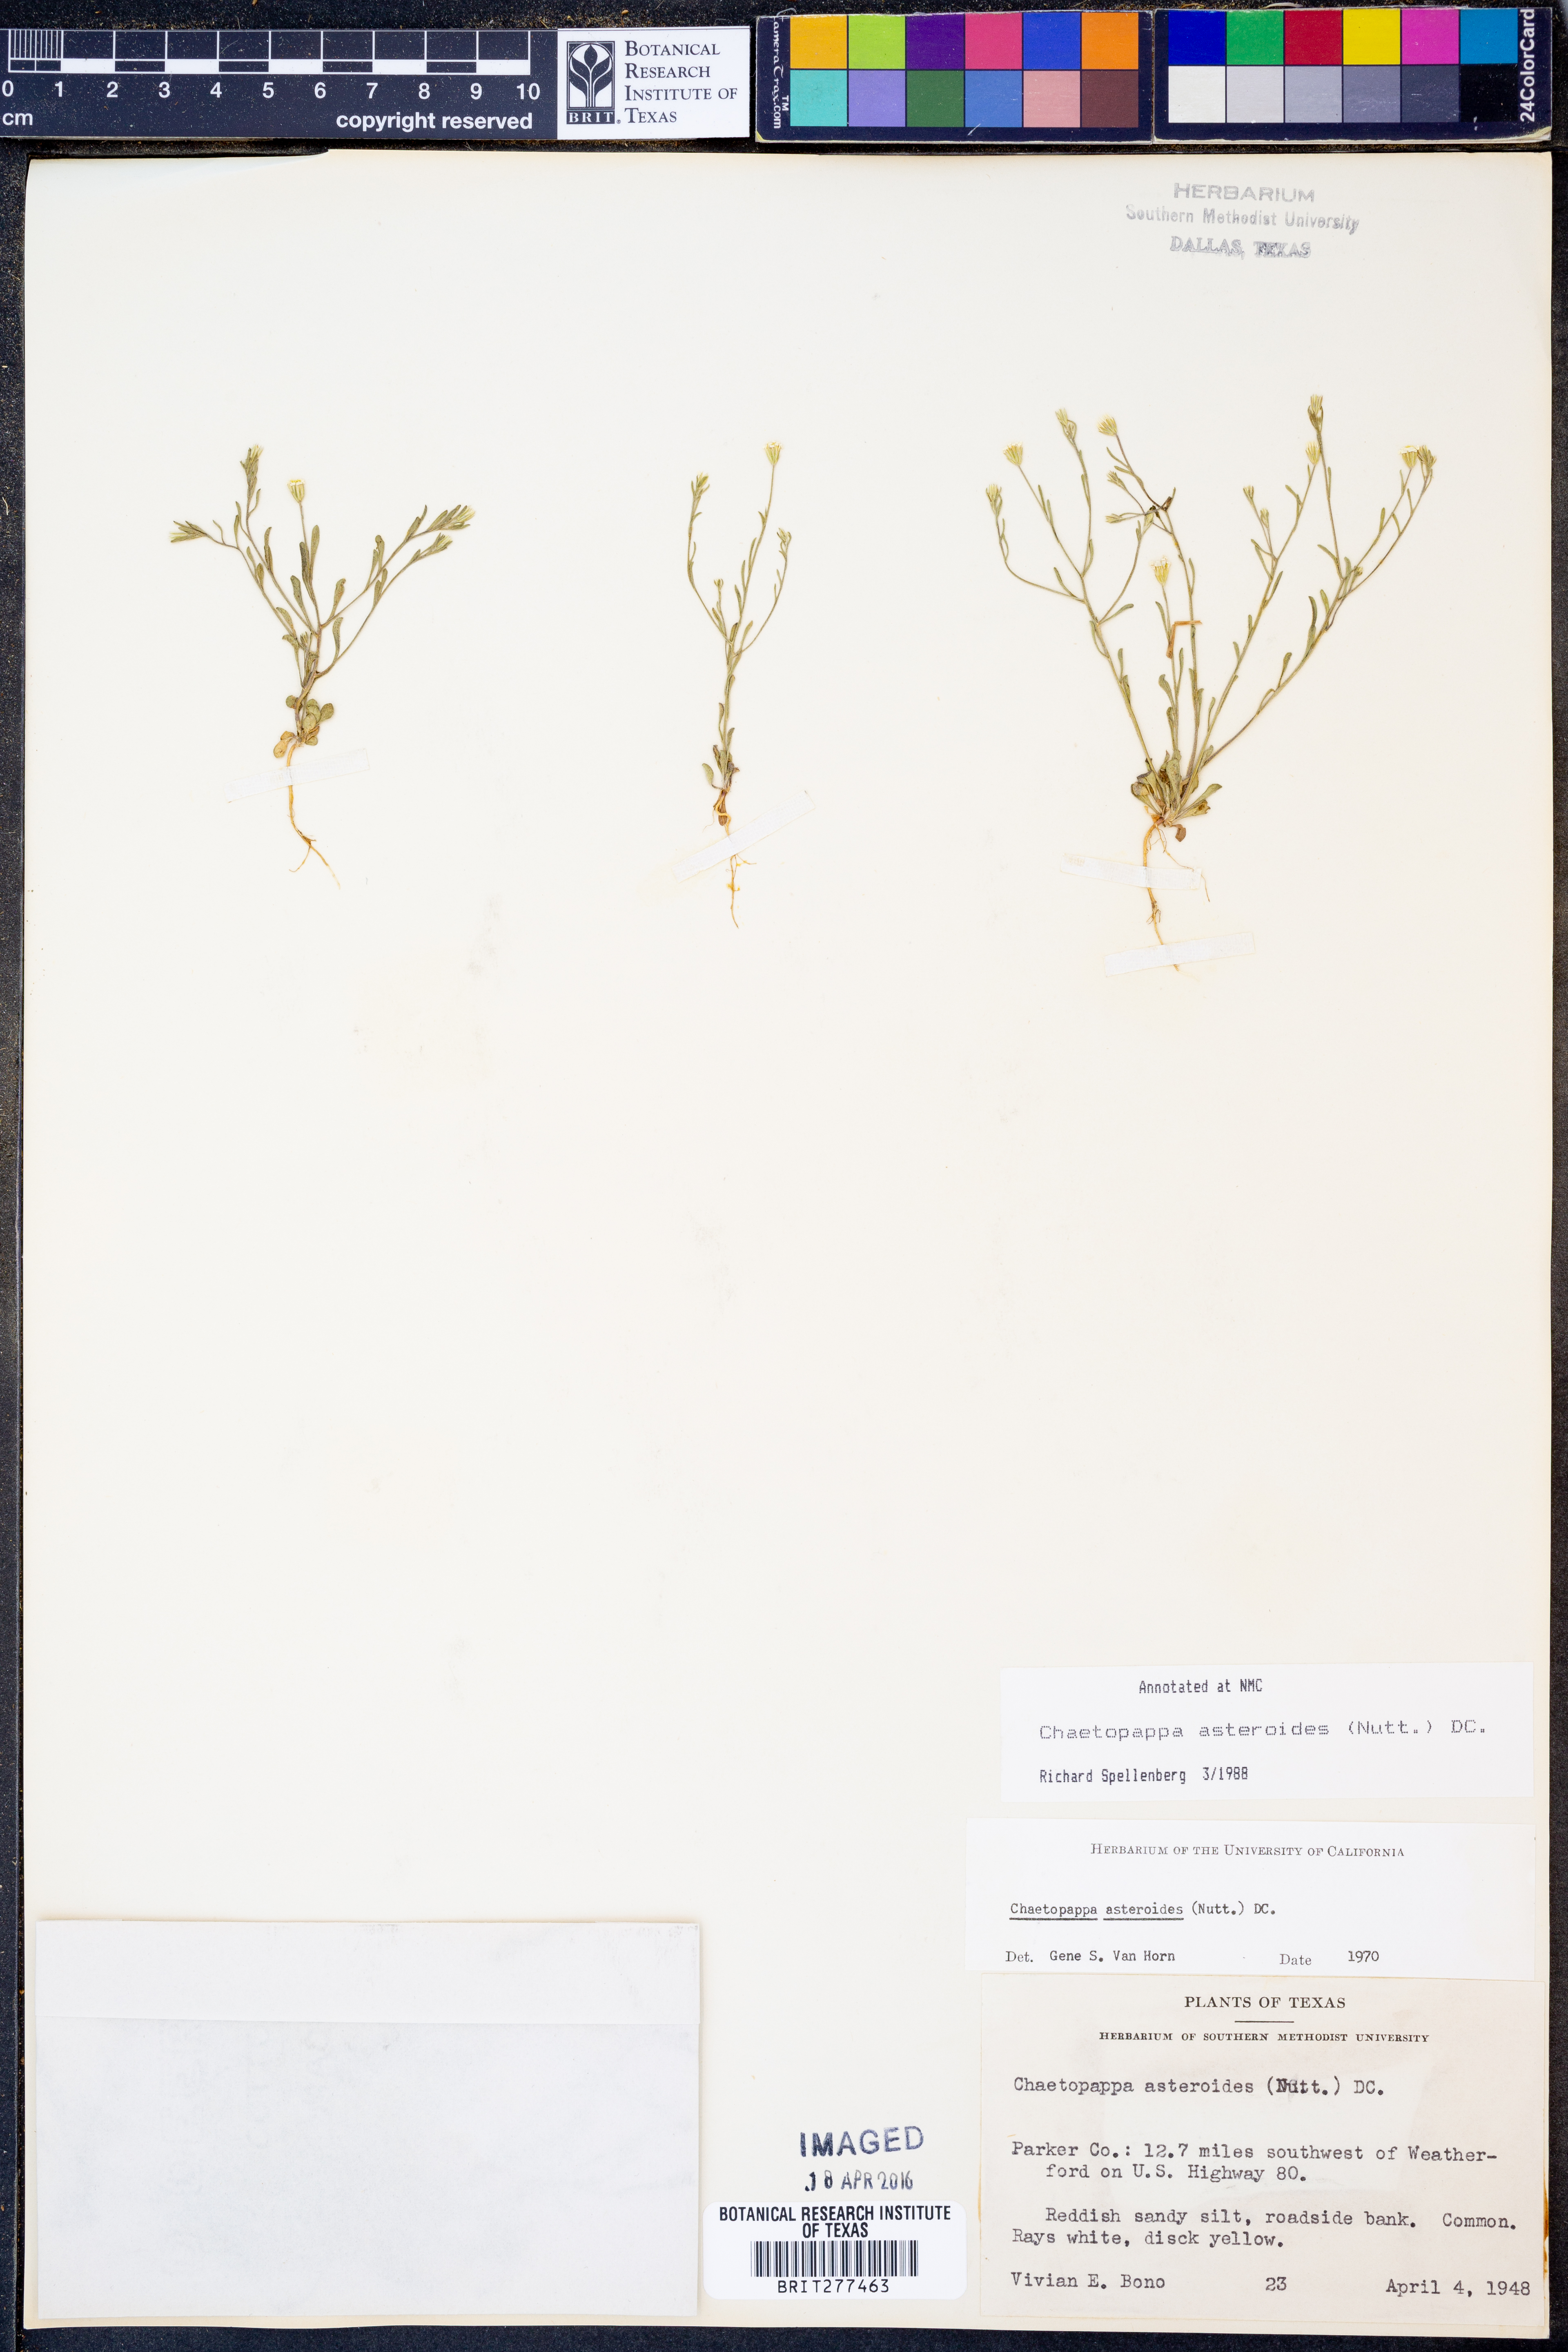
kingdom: Plantae
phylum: Tracheophyta
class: Magnoliopsida
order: Asterales
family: Asteraceae
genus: Chaetopappa
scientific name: Chaetopappa asteroides
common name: Tiny lazy daisy
